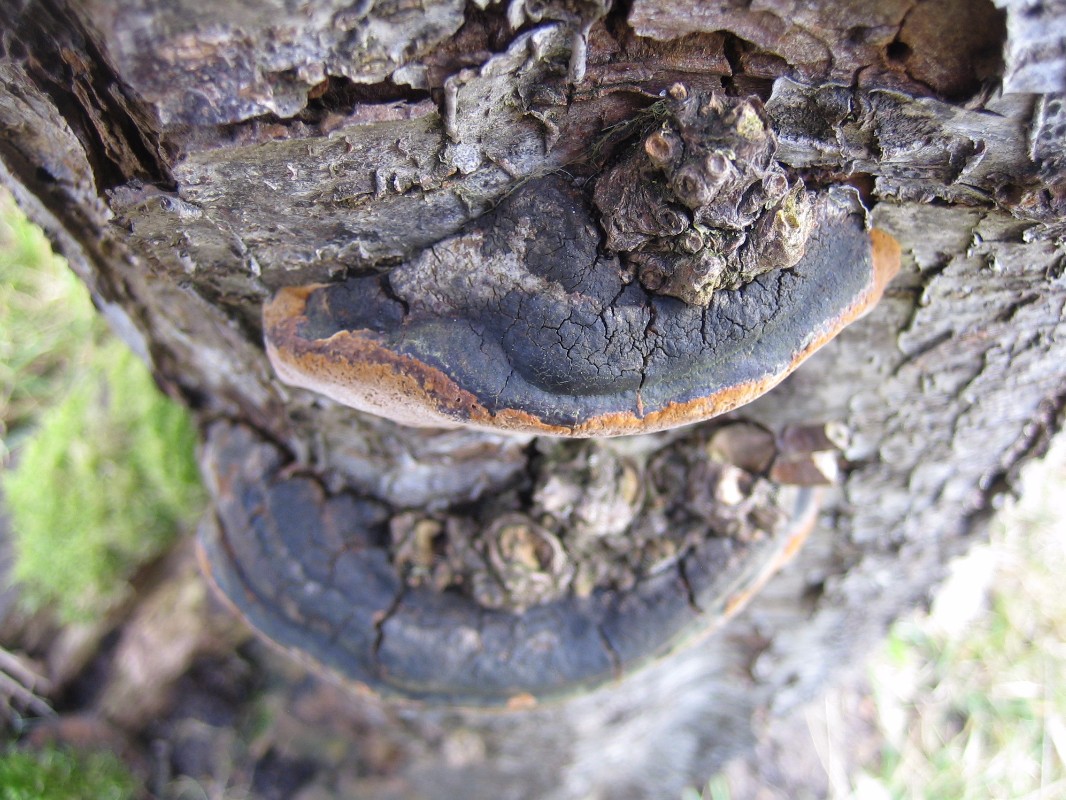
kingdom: Fungi
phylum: Basidiomycota
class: Agaricomycetes
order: Hymenochaetales
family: Hymenochaetaceae
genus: Phellinus
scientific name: Phellinus pomaceus
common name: blomme-ildporesvamp
